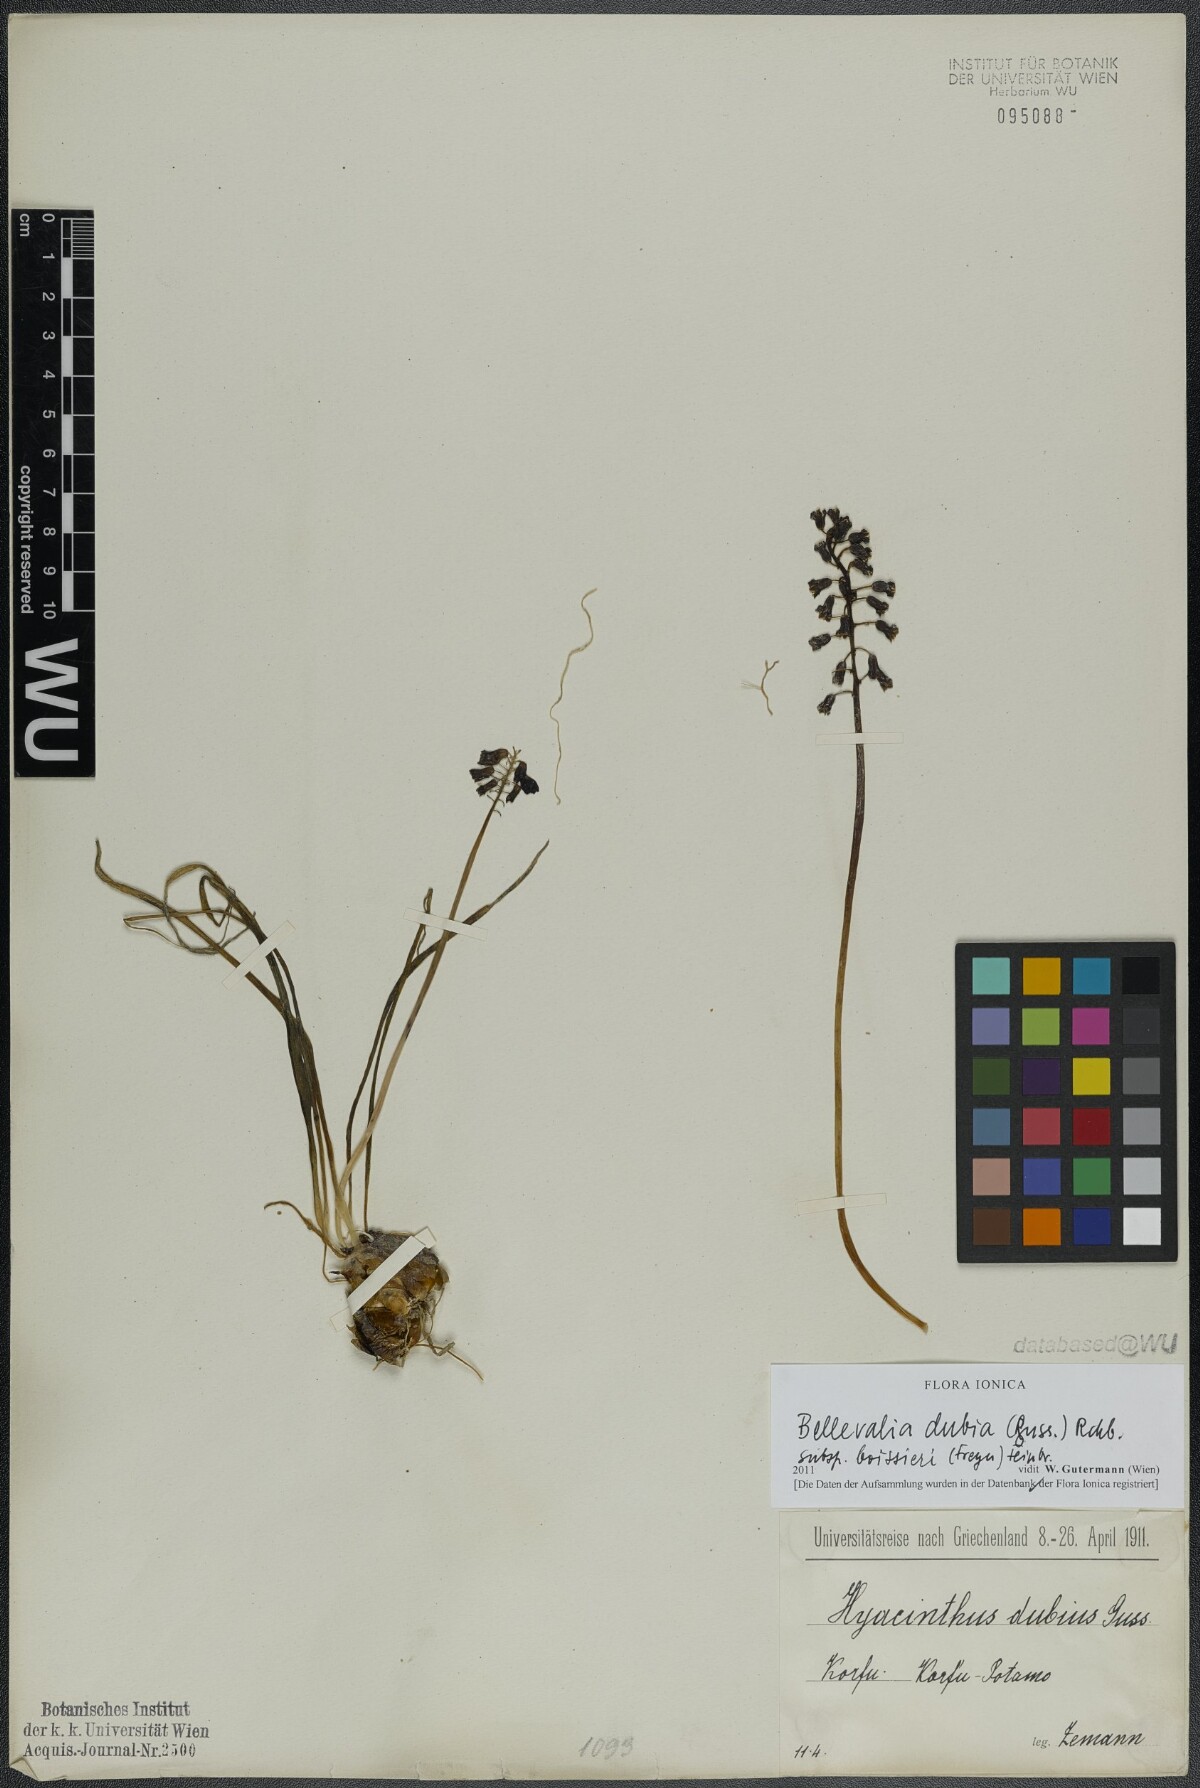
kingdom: Plantae
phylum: Tracheophyta
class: Liliopsida
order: Asparagales
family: Asparagaceae
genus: Bellevalia
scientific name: Bellevalia dubia
